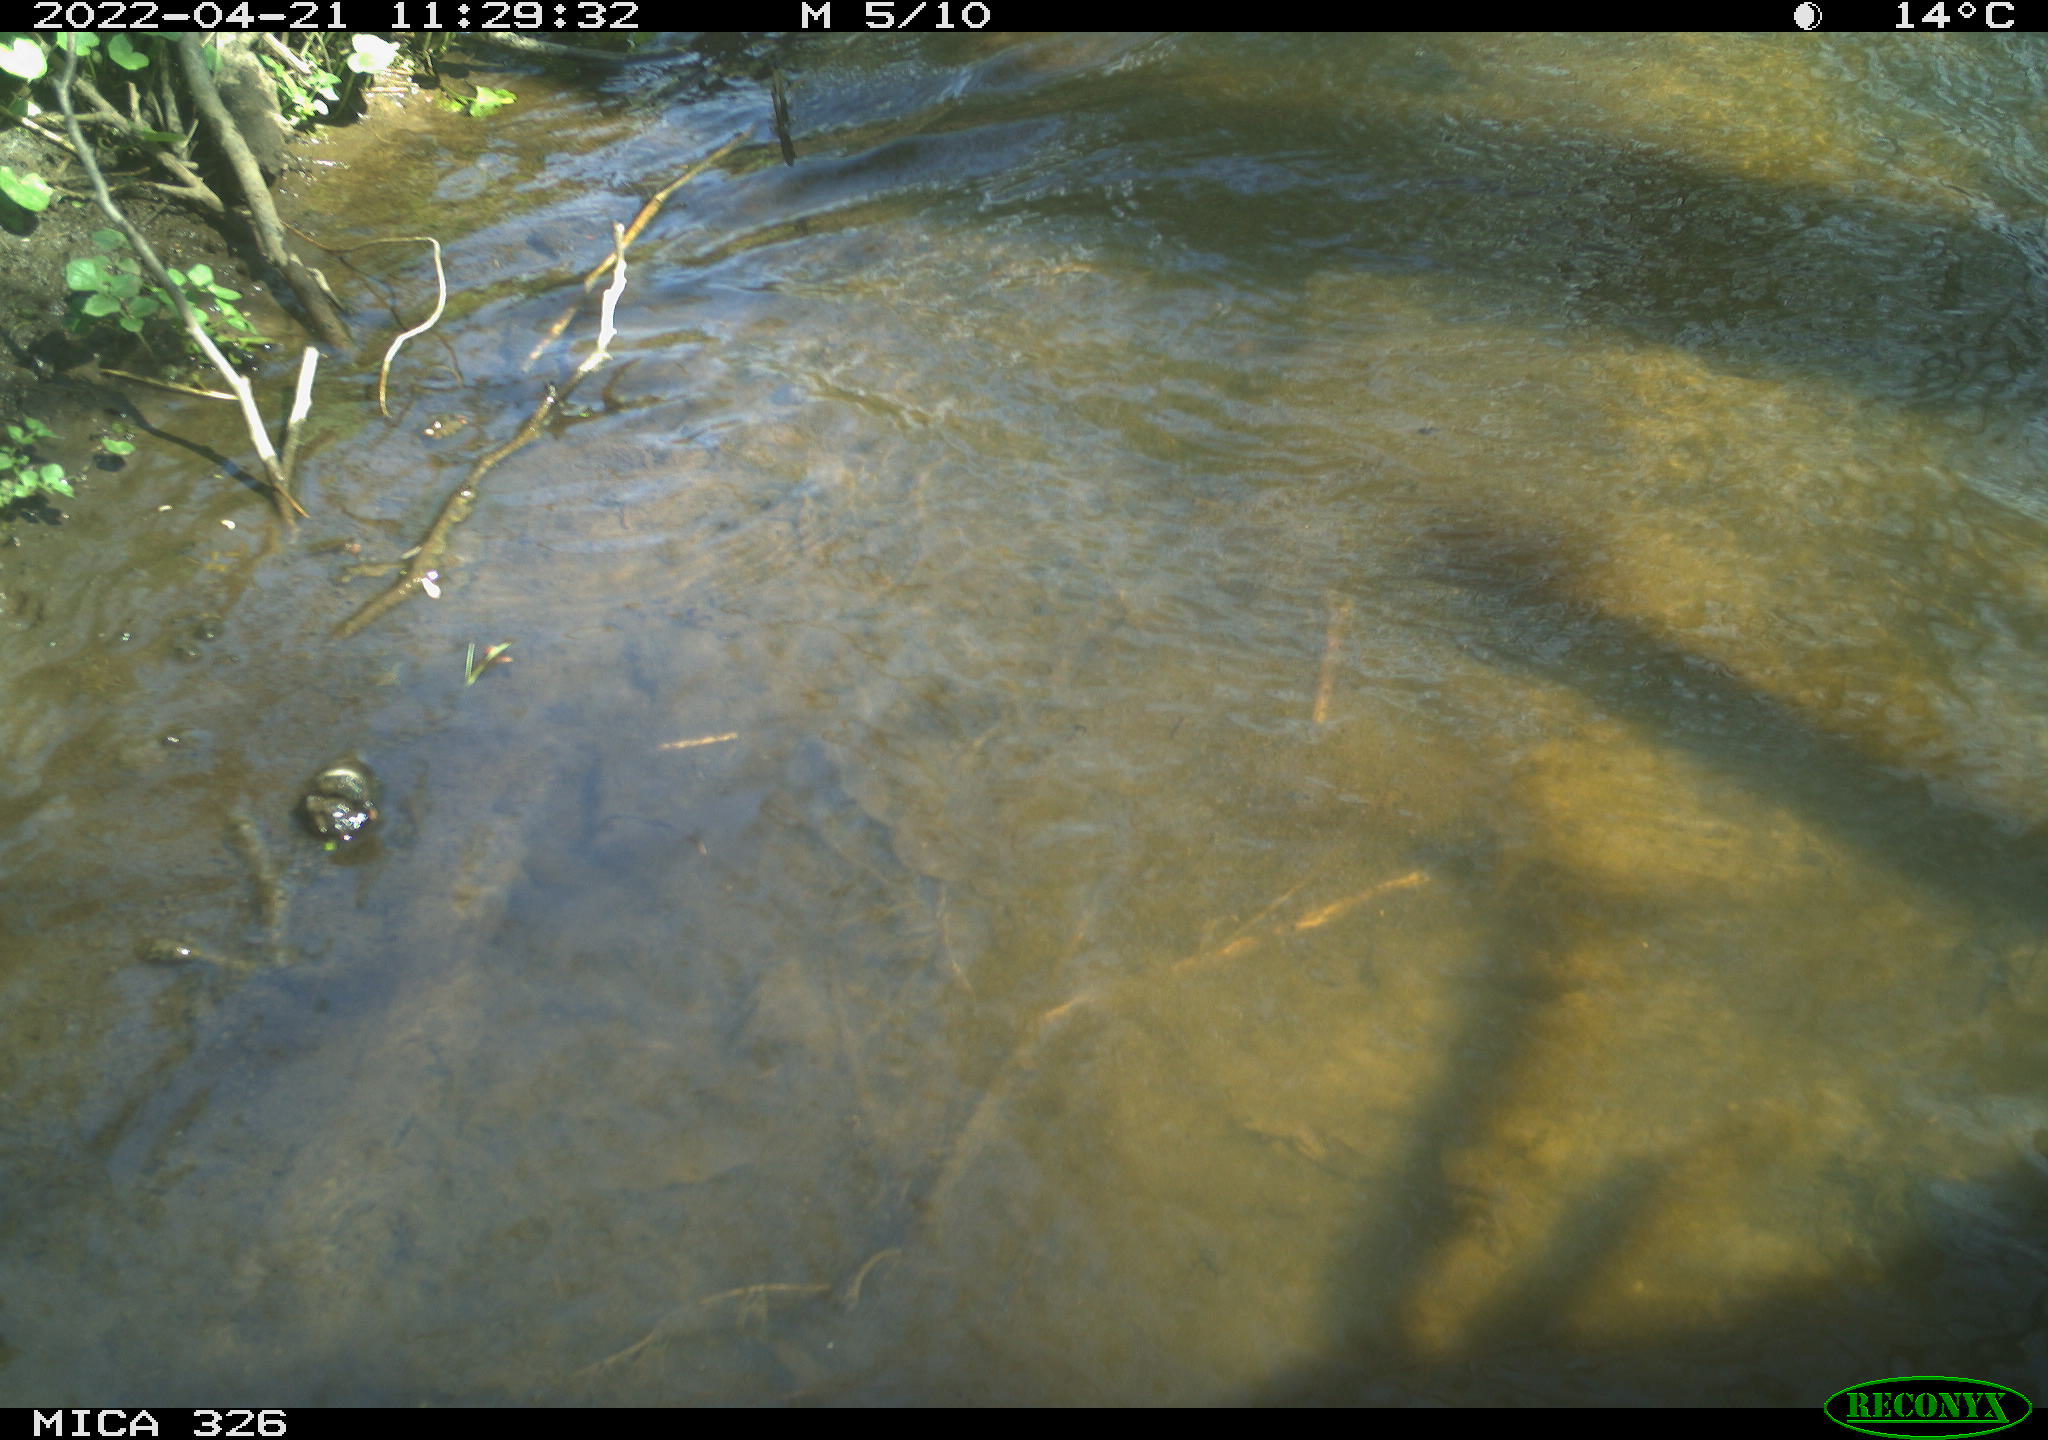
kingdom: Animalia
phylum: Chordata
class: Mammalia
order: Rodentia
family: Cricetidae
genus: Ondatra
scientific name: Ondatra zibethicus
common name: Muskrat
